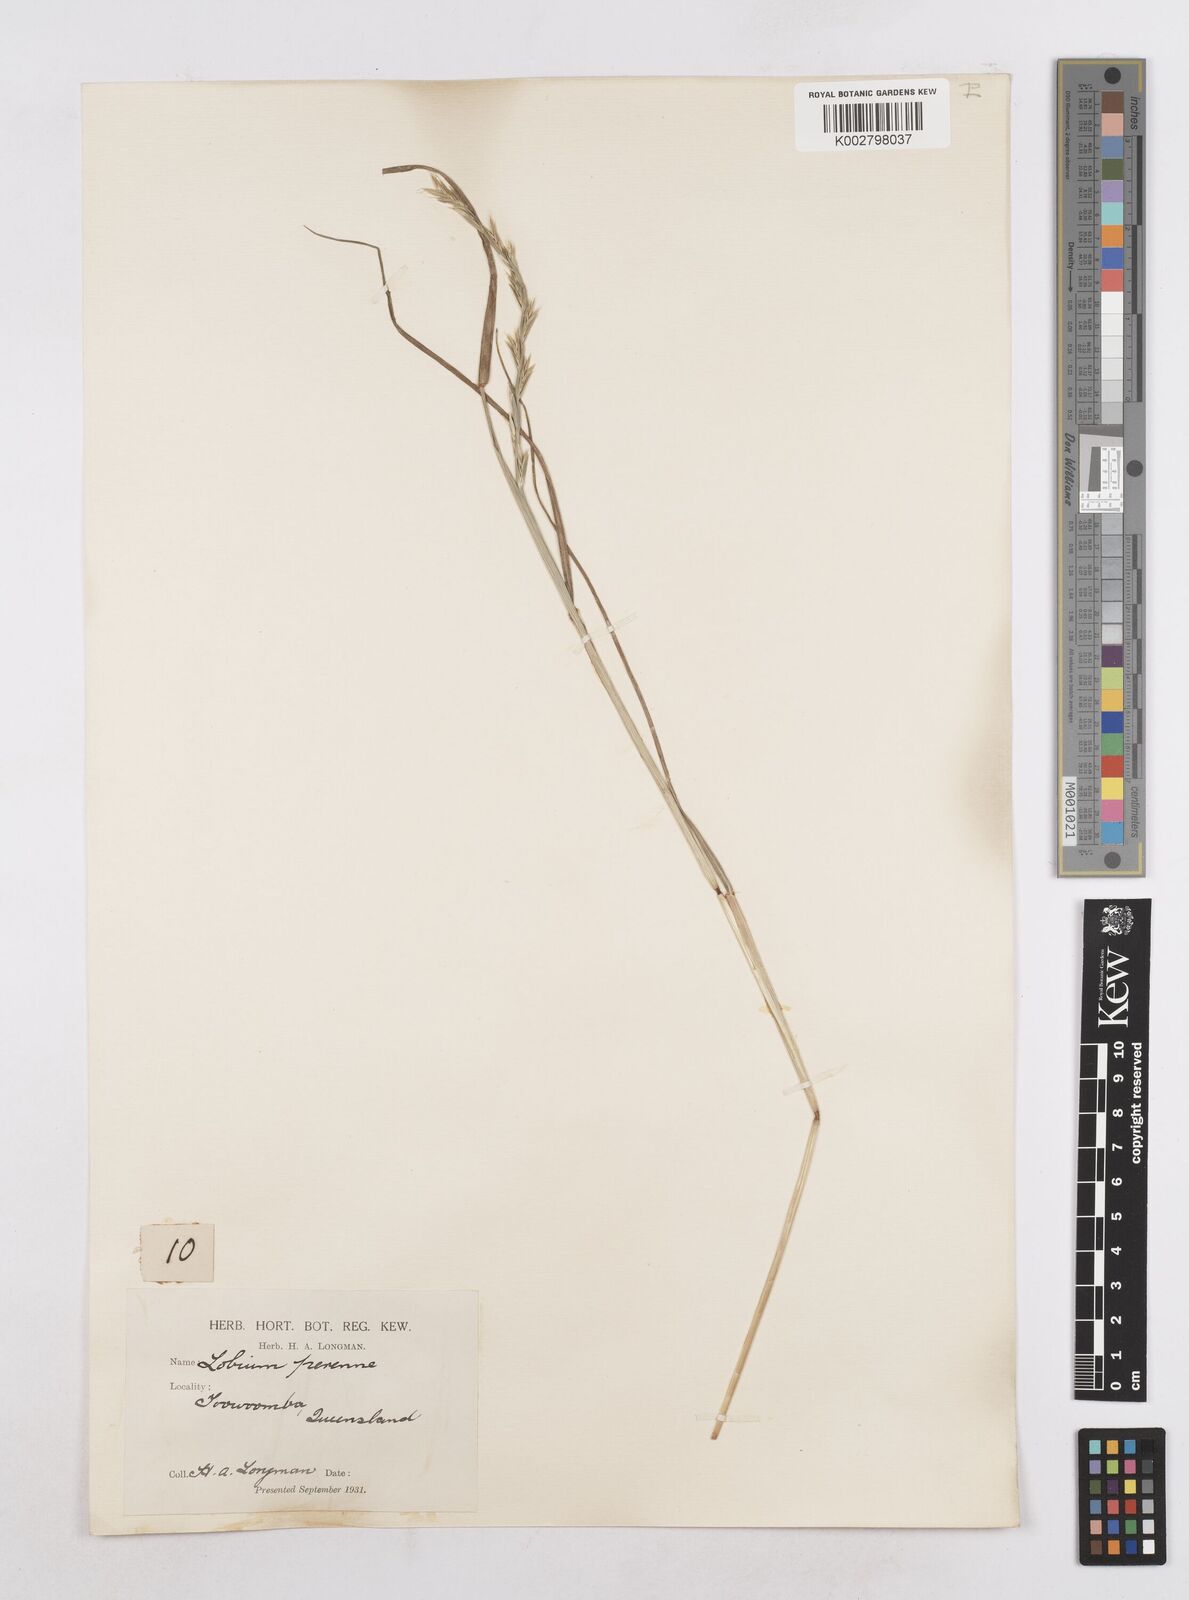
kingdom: Plantae
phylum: Tracheophyta
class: Liliopsida
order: Poales
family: Poaceae
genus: Lolium
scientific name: Lolium perenne
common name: Perennial ryegrass
